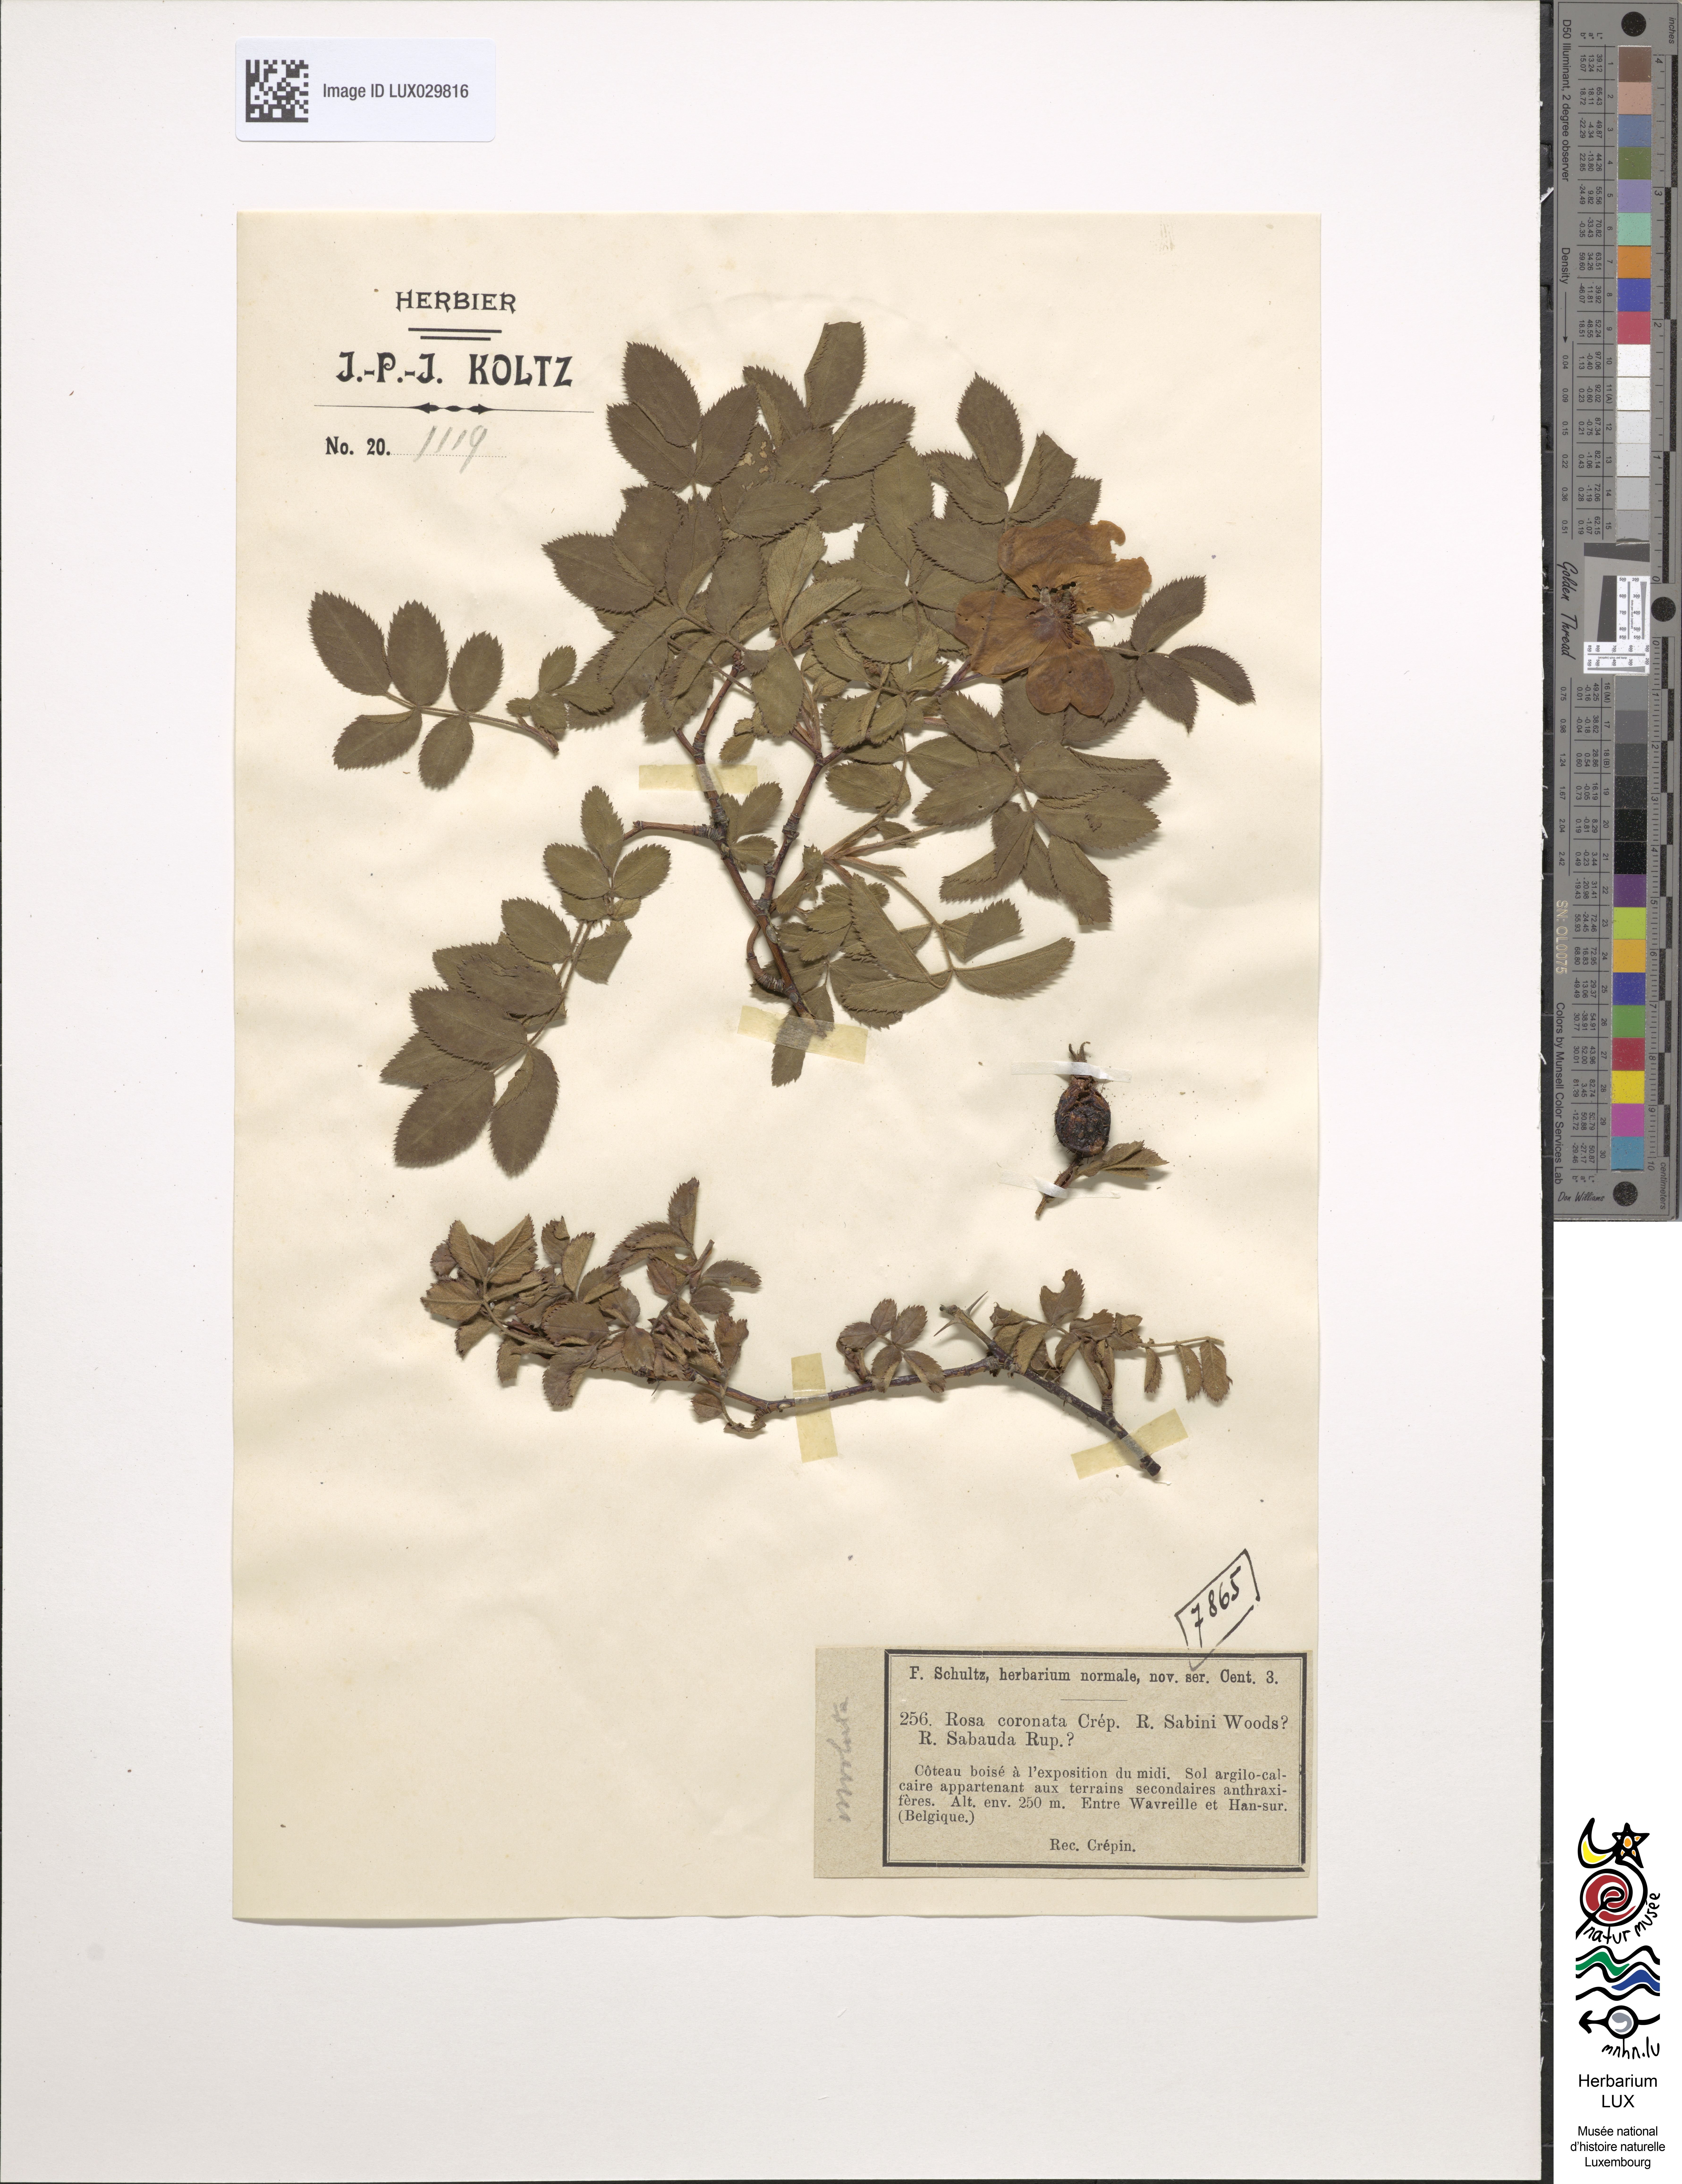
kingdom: Plantae
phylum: Tracheophyta
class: Magnoliopsida
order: Rosales
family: Rosaceae
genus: Rosa
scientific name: Rosa coronata
